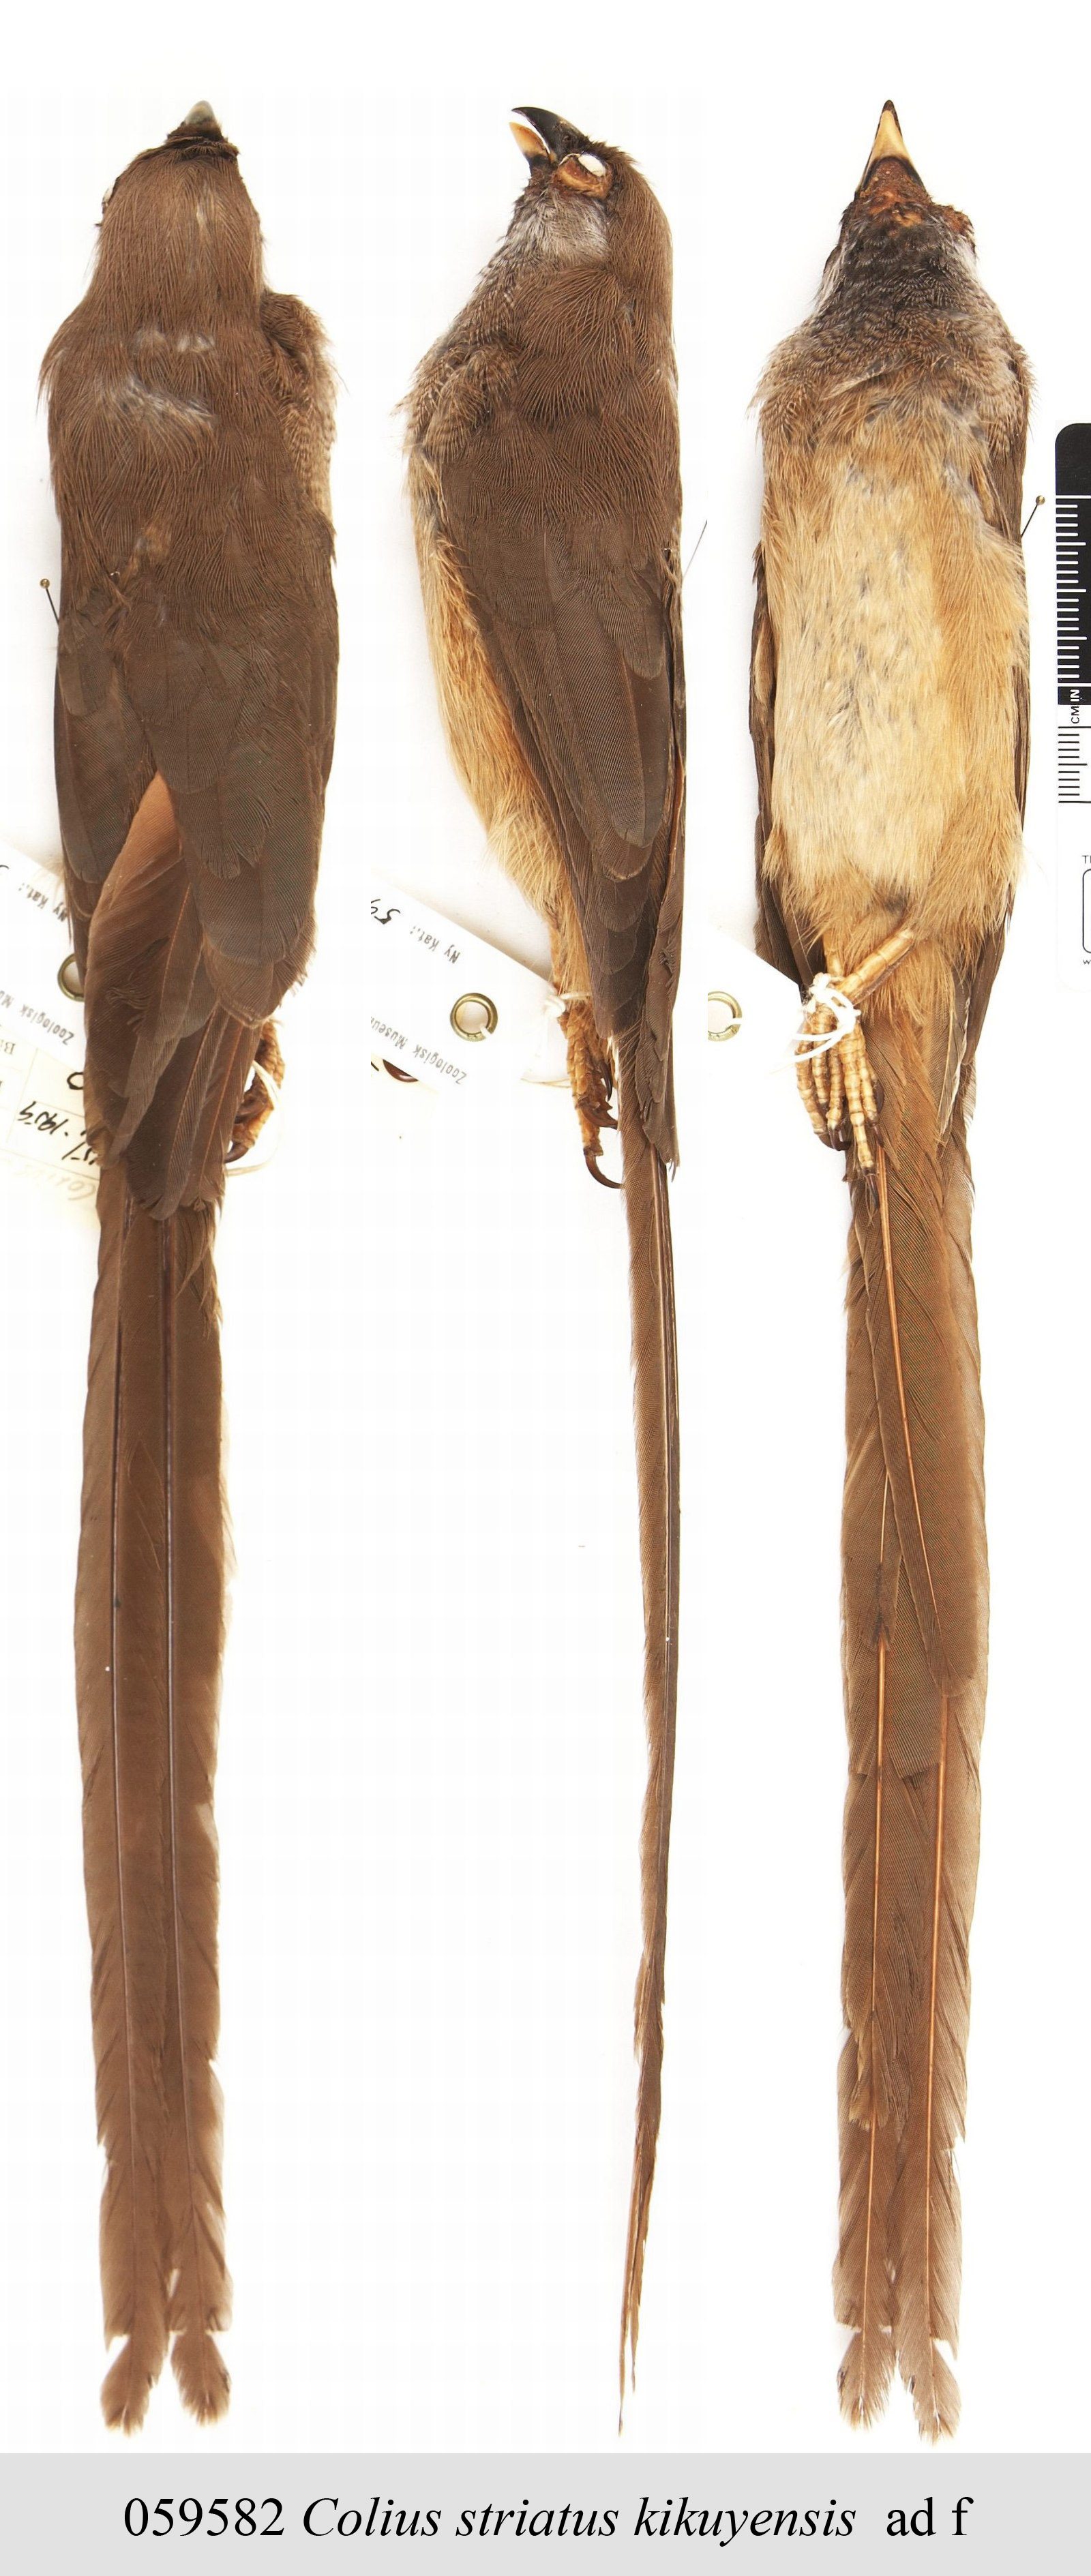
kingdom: Animalia
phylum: Chordata
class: Aves
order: Coliiformes
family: Coliidae
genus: Colius
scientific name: Colius striatus
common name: Speckled mousebird
